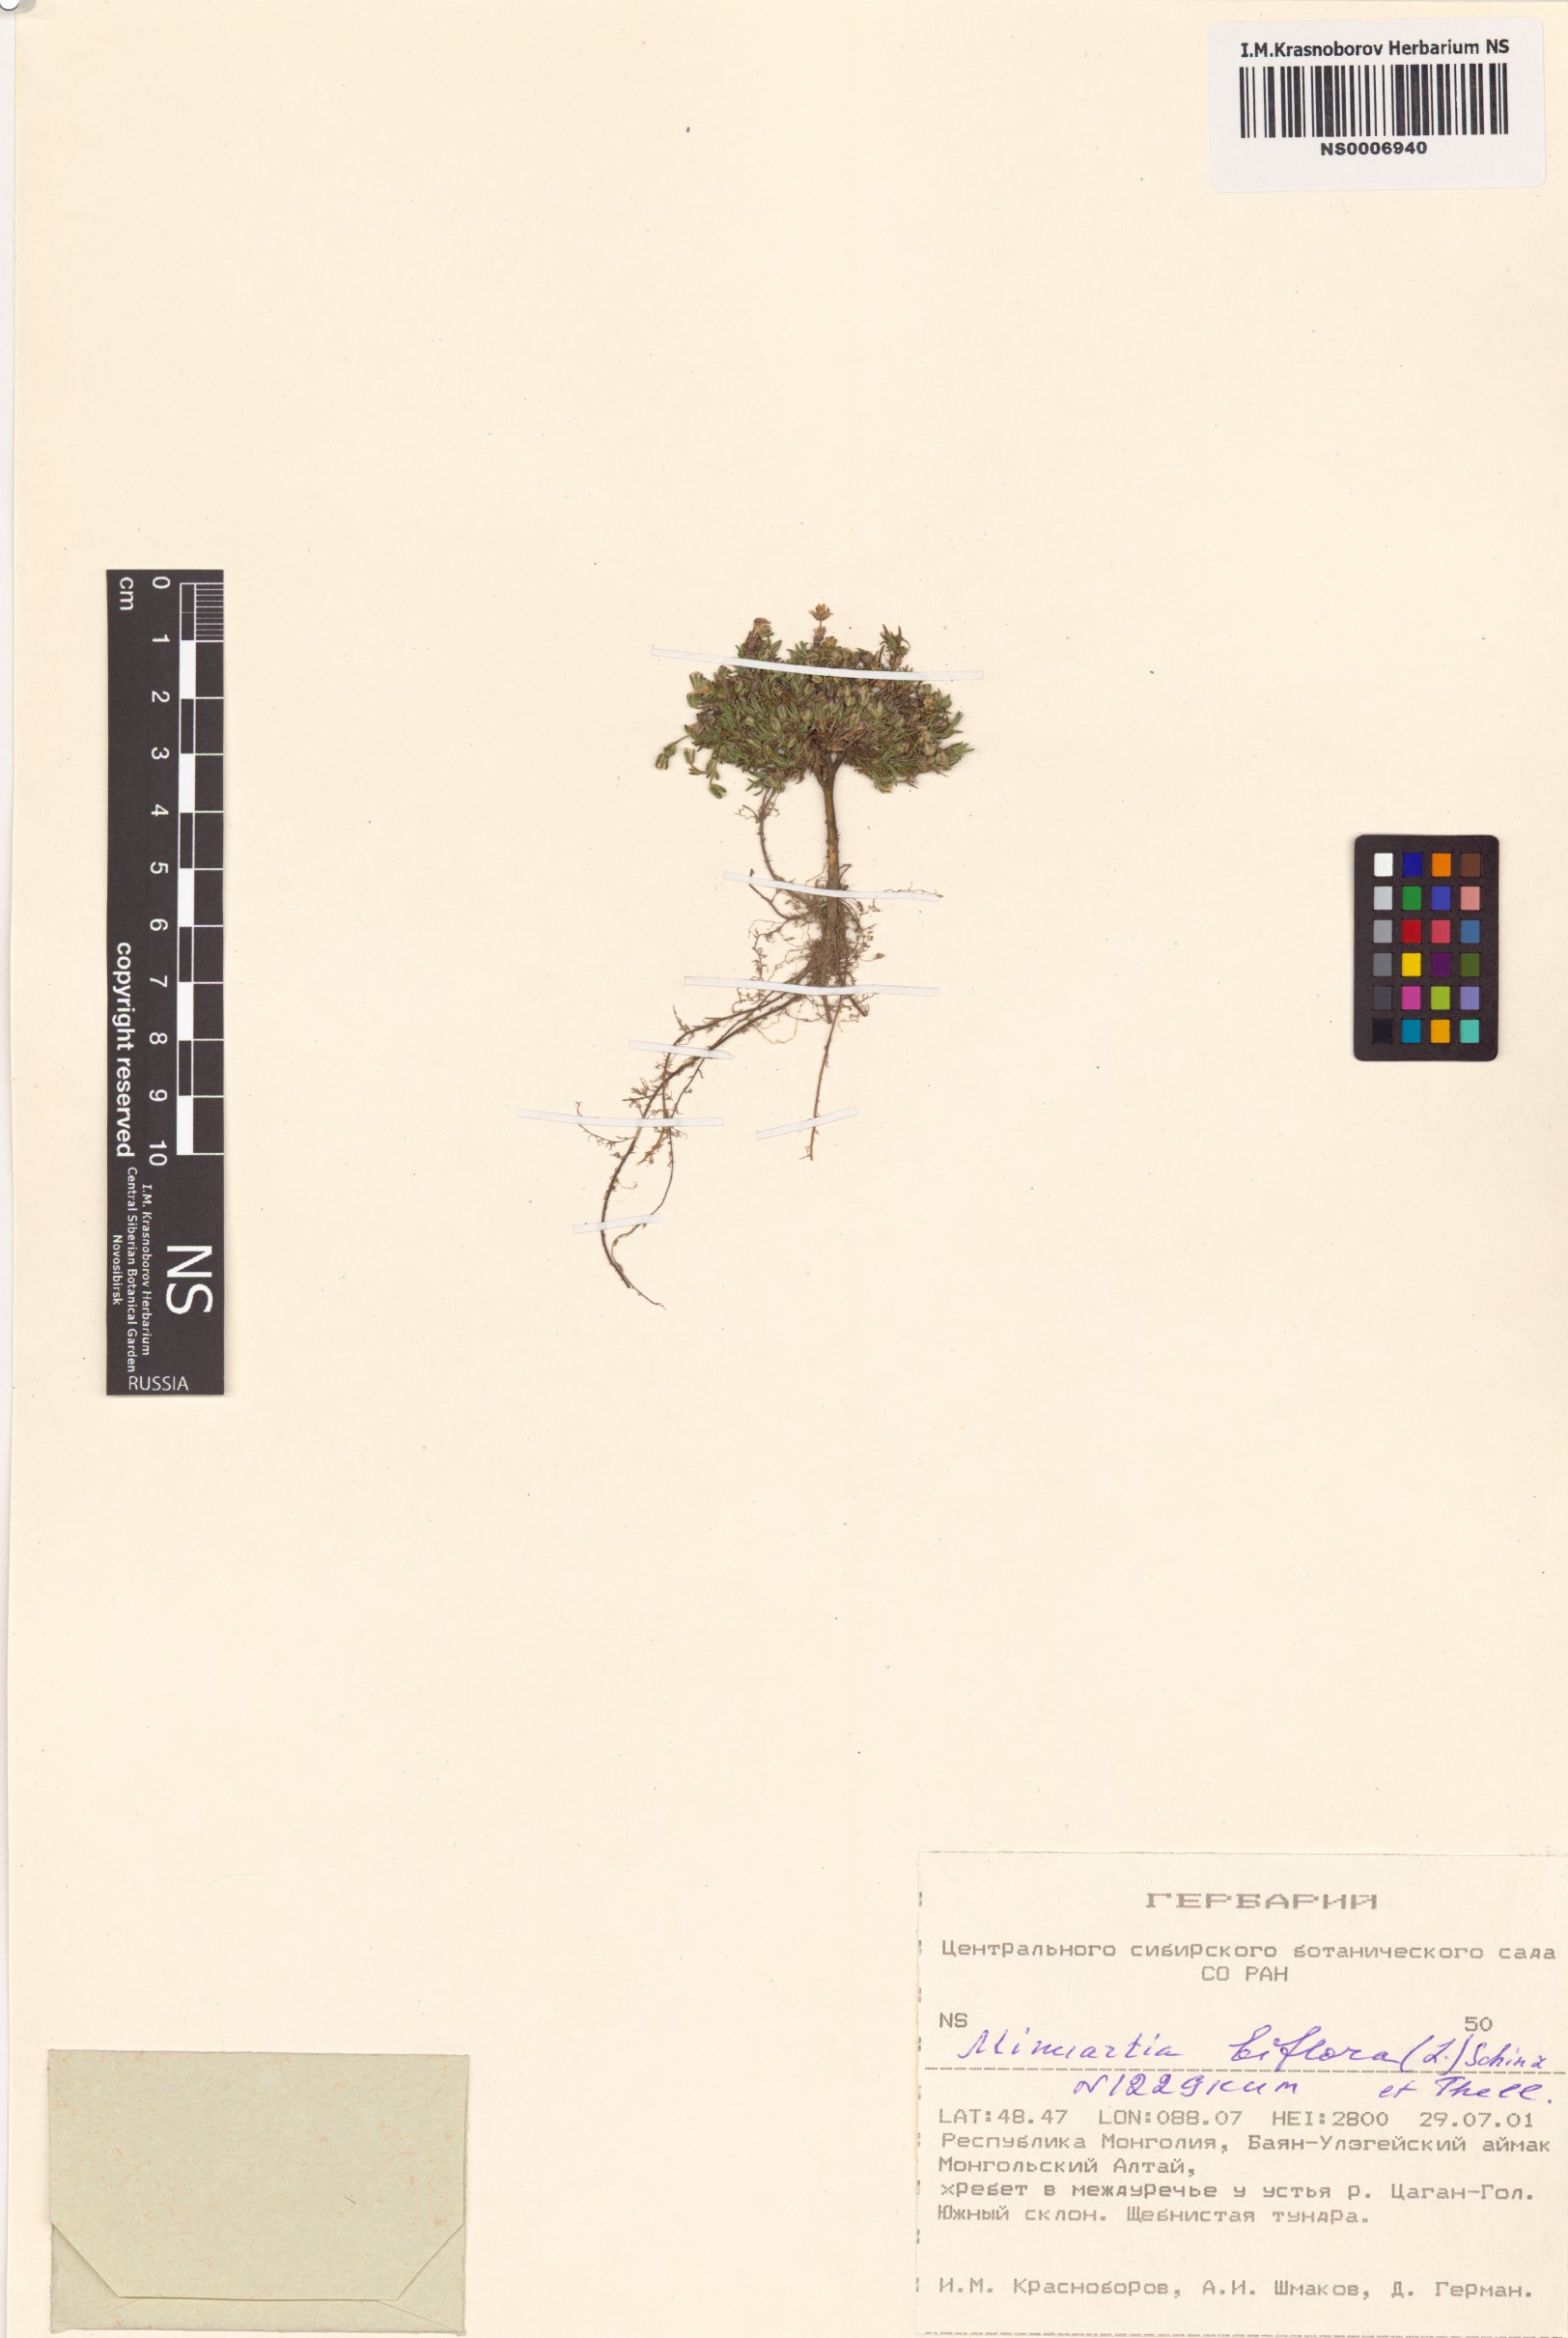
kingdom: Plantae
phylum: Tracheophyta
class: Magnoliopsida
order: Caryophyllales
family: Caryophyllaceae
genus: Cherleria
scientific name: Cherleria biflora
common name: Mountain sandwort
